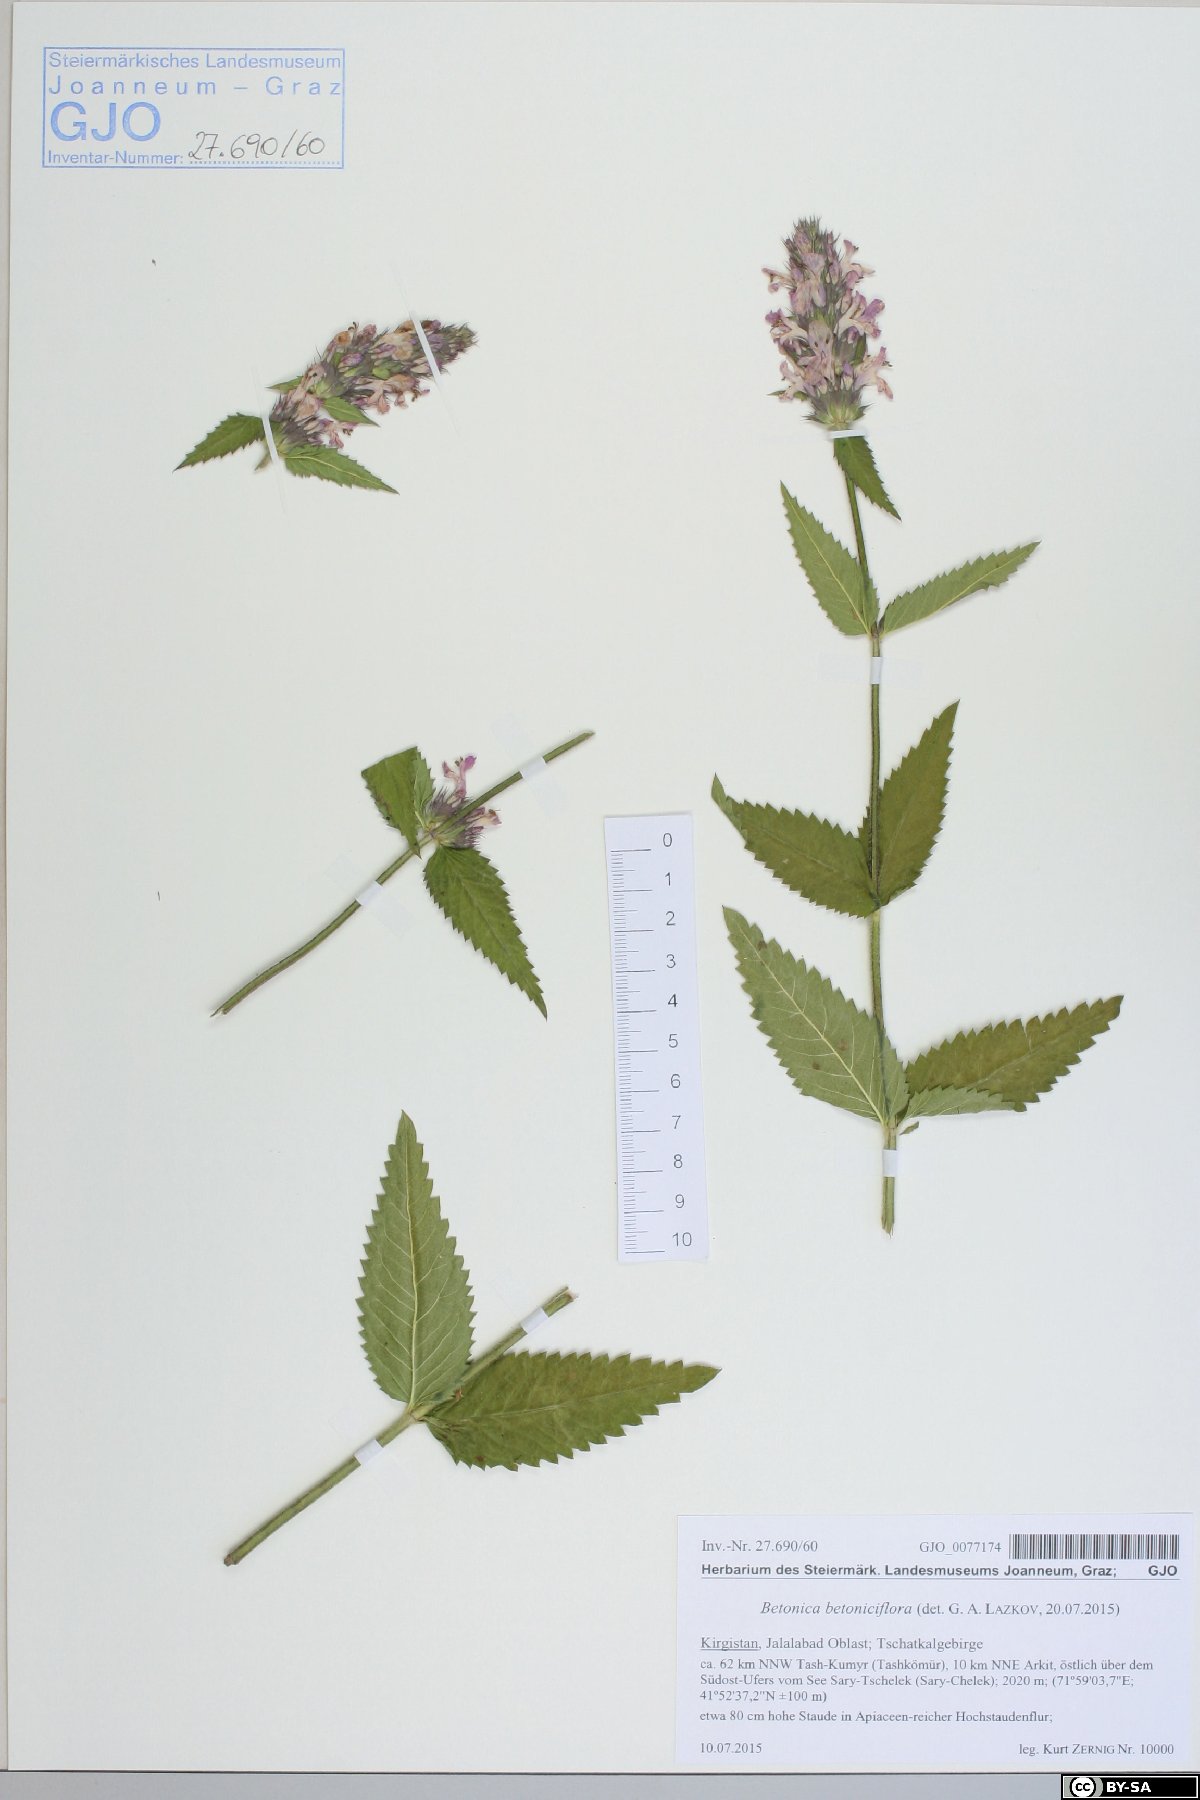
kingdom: Plantae
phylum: Tracheophyta
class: Magnoliopsida
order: Lamiales
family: Lamiaceae
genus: Betonica
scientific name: Betonica betoniciflora
